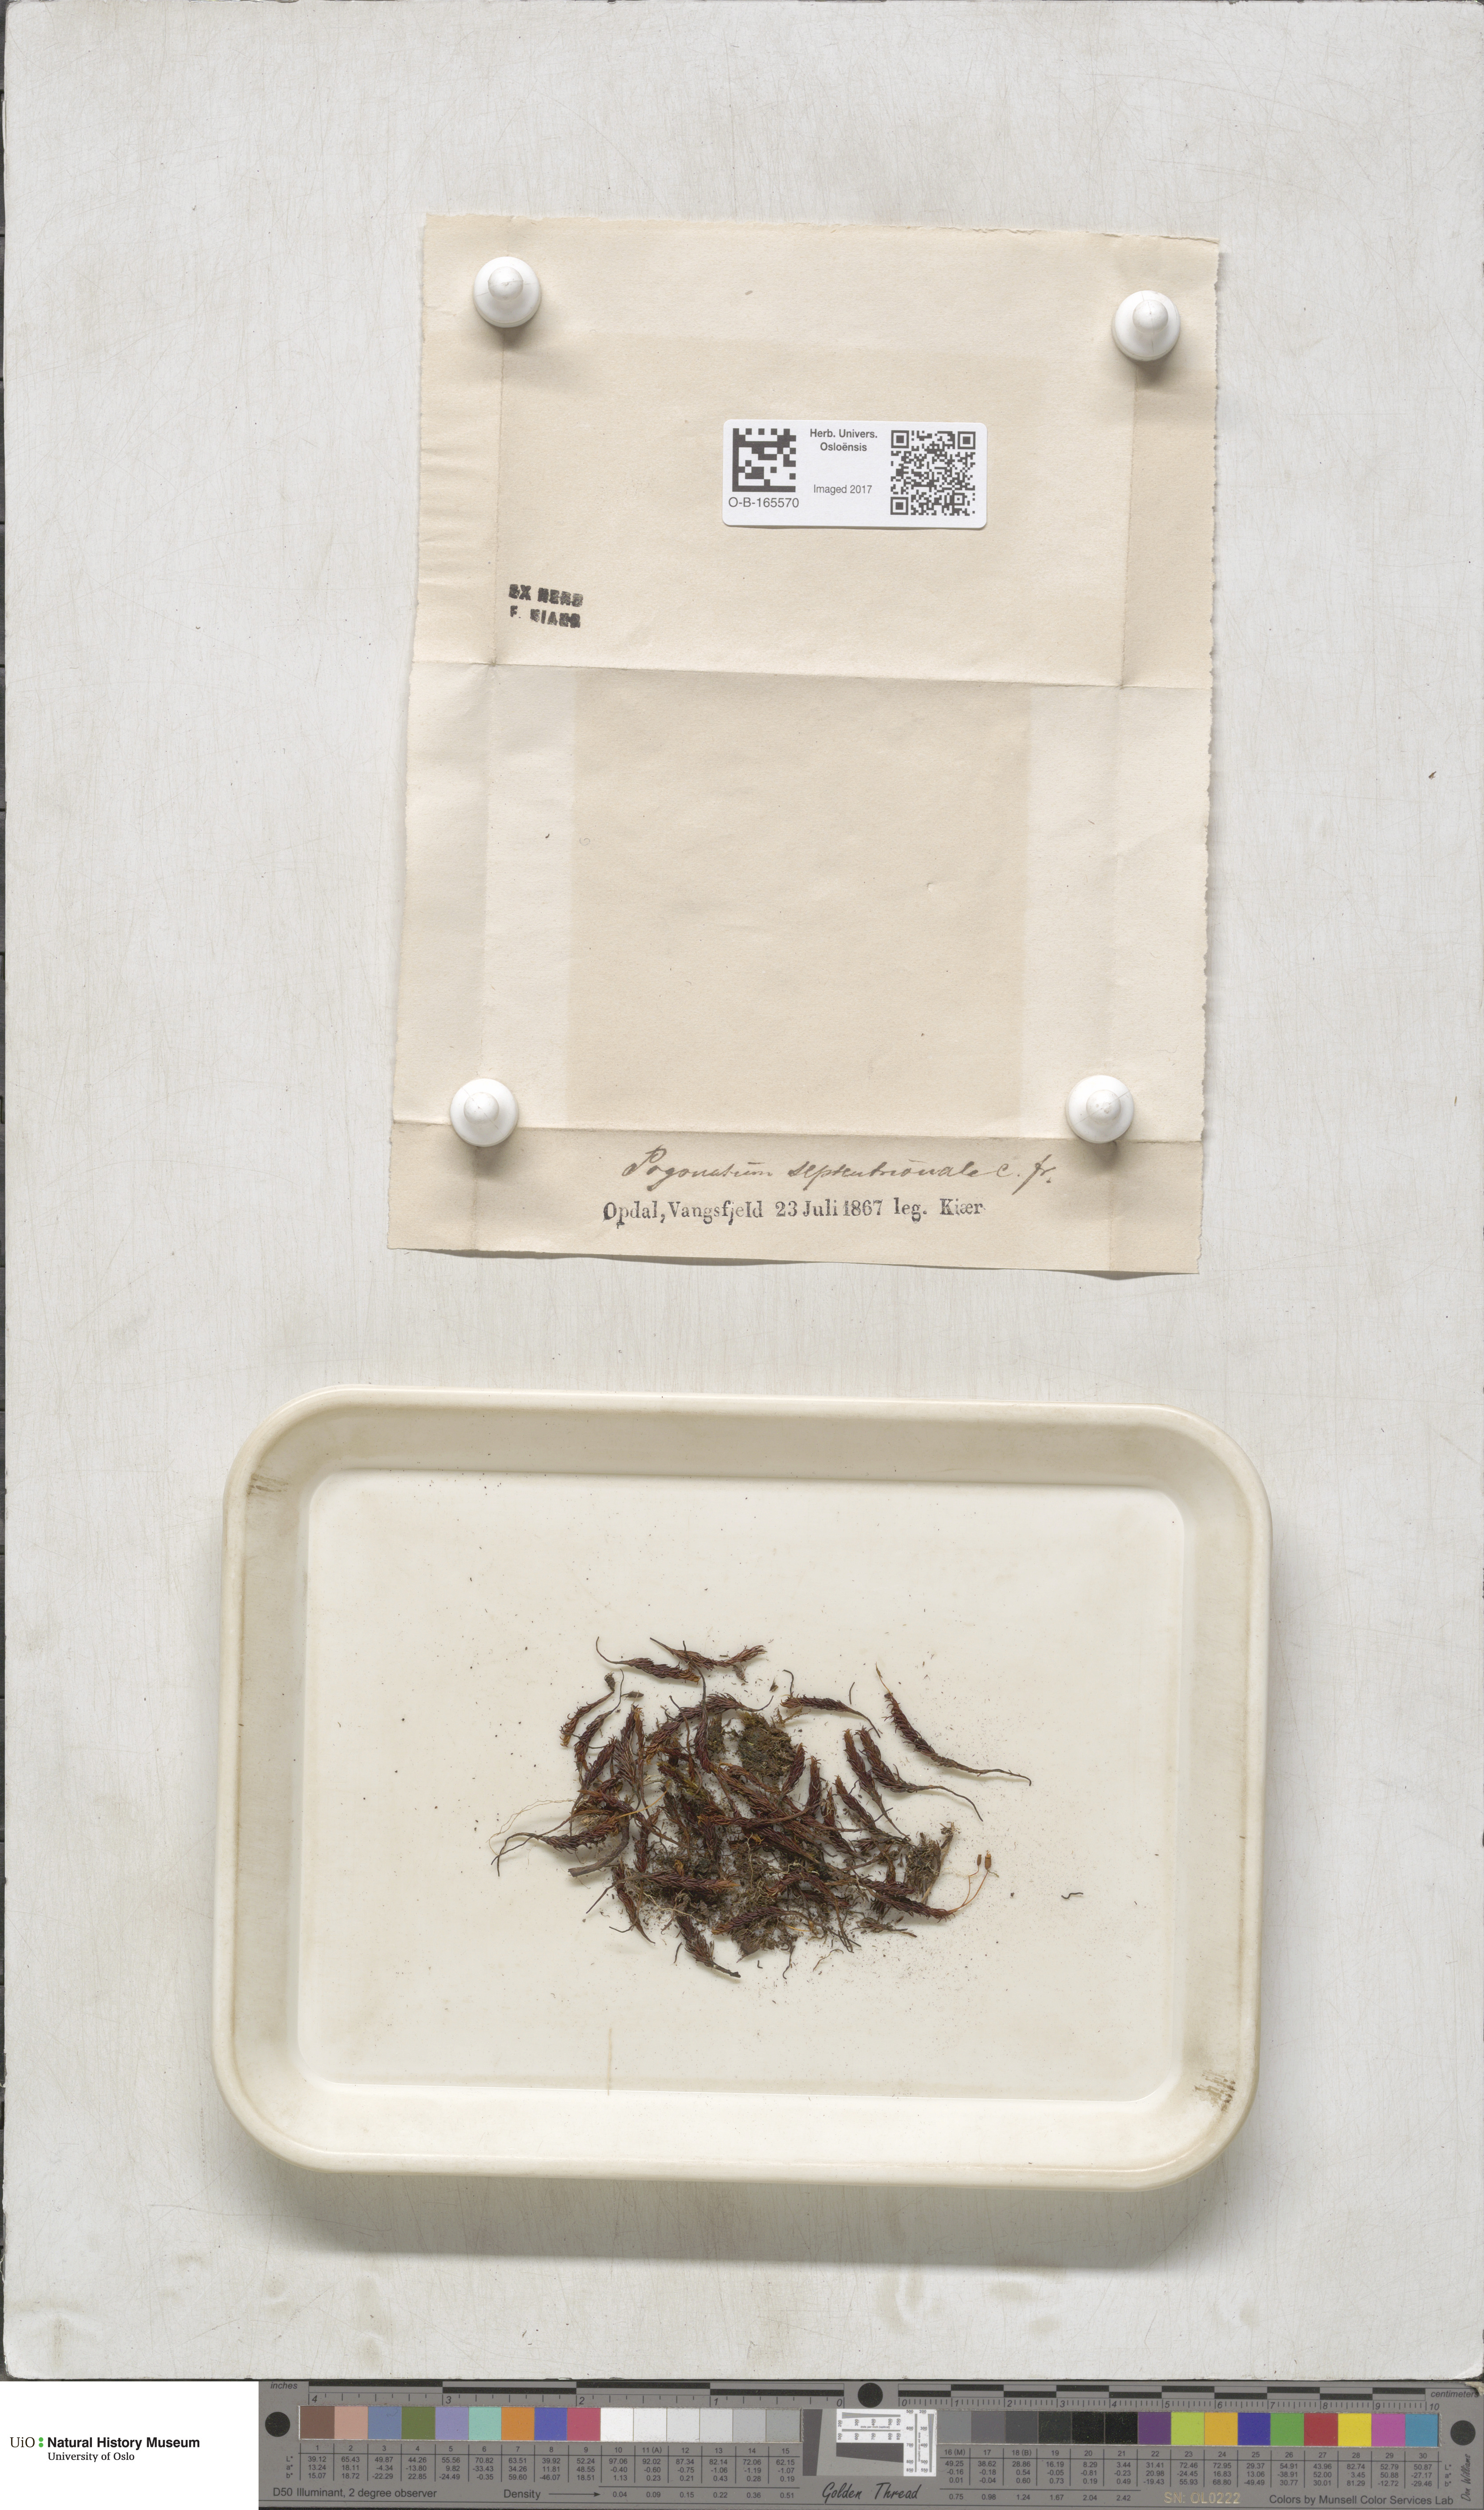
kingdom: Plantae
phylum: Bryophyta
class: Polytrichopsida
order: Polytrichales
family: Polytrichaceae
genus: Polytrichastrum
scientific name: Polytrichastrum sexangulare
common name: Northern haircap
